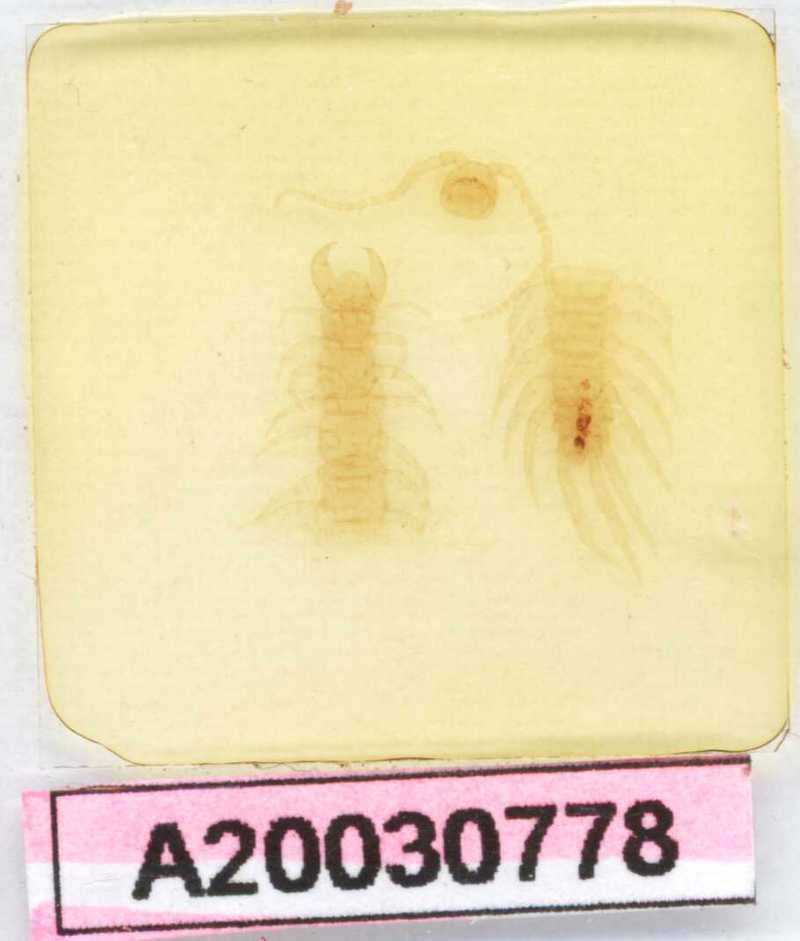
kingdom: Animalia
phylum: Arthropoda
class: Chilopoda
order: Lithobiomorpha
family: Lithobiidae
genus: Lithobius
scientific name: Lithobius parvicornis
